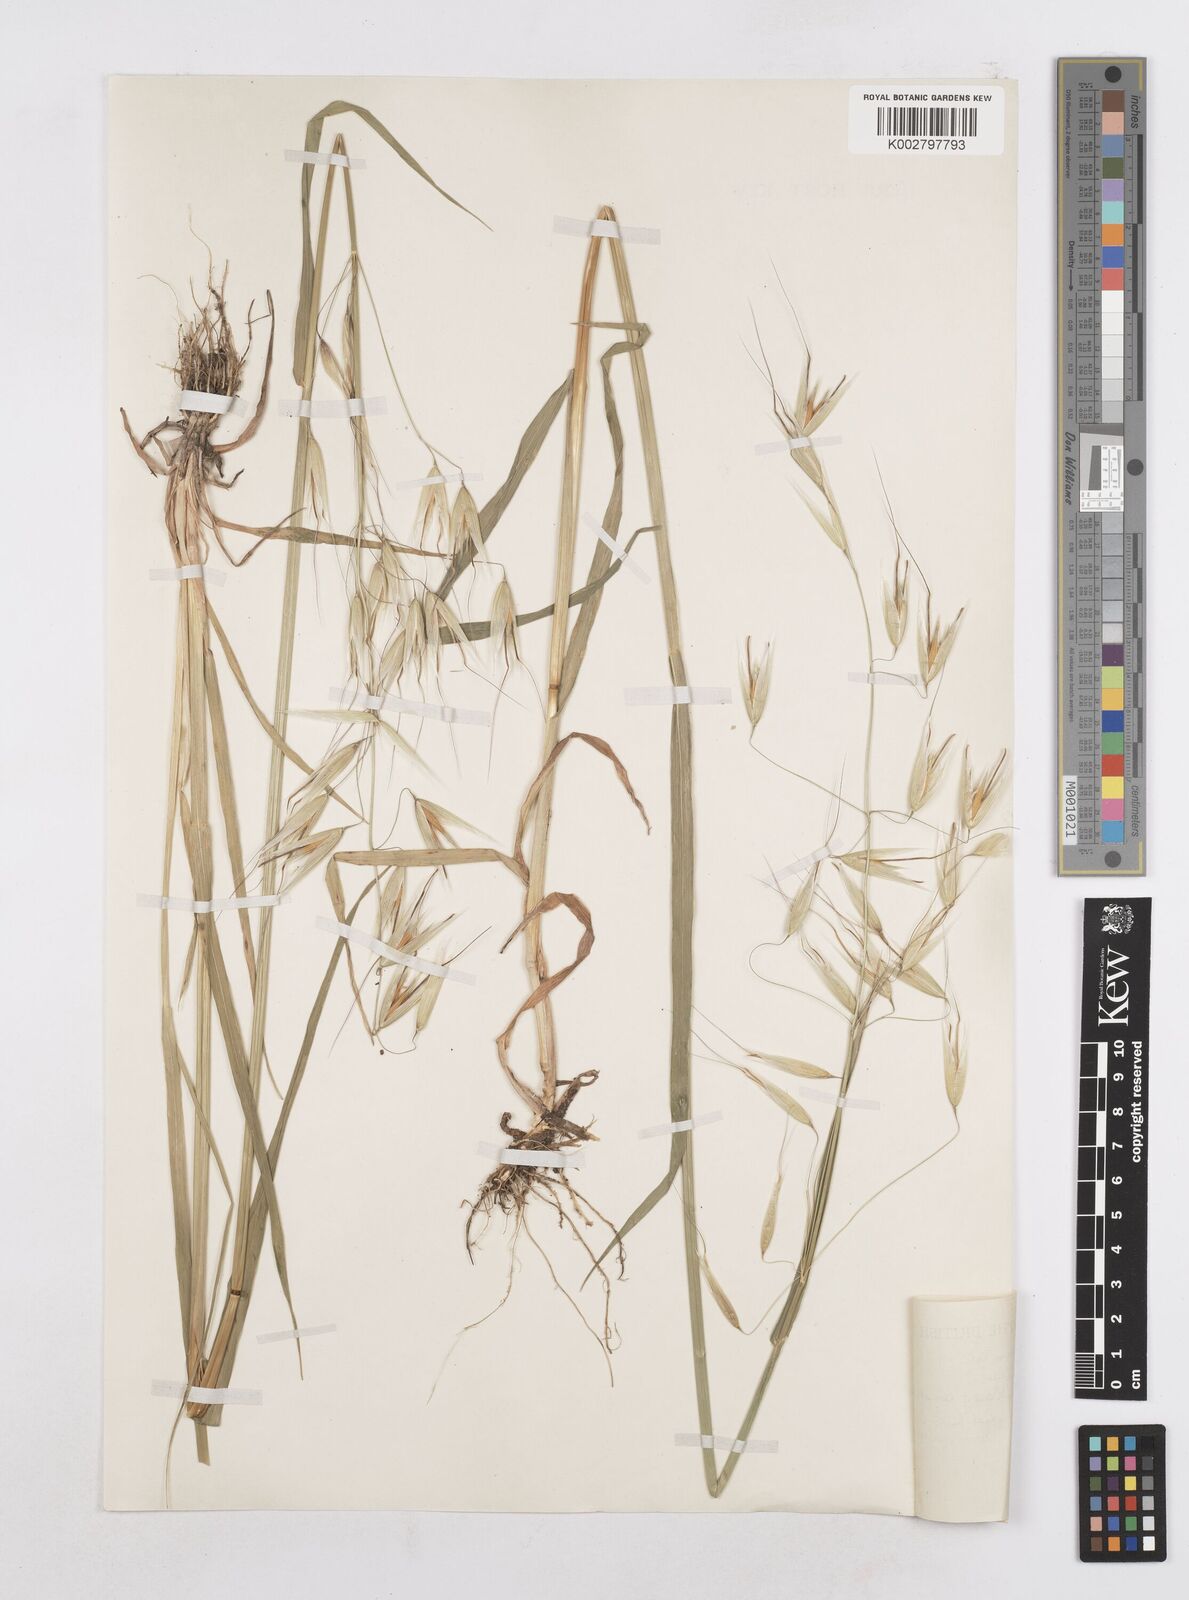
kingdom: Plantae
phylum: Tracheophyta
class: Liliopsida
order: Poales
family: Poaceae
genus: Avena
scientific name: Avena sterilis
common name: Animated oat
